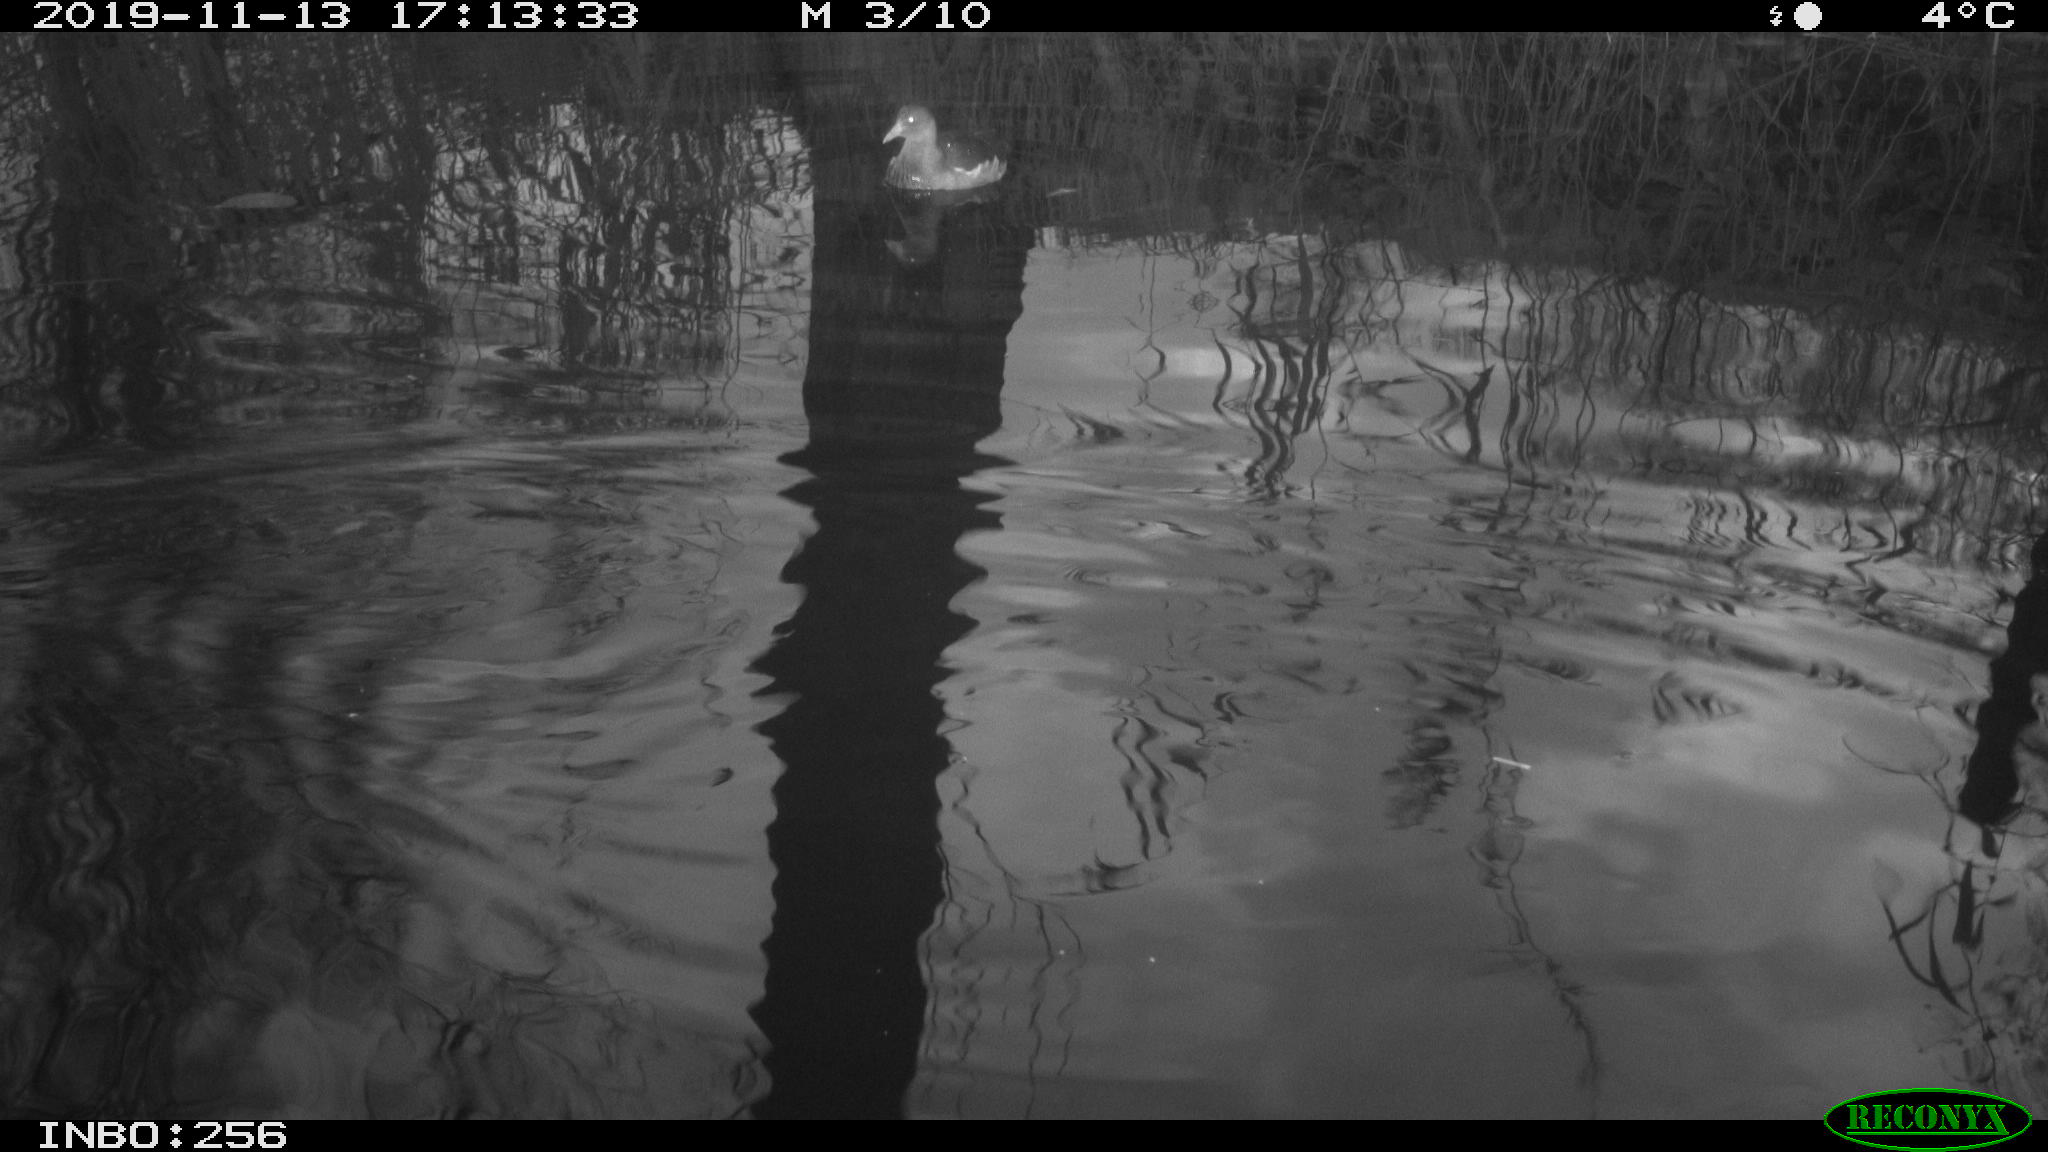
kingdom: Animalia
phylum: Chordata
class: Mammalia
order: Rodentia
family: Muridae
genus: Rattus
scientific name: Rattus norvegicus
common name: Brown rat
